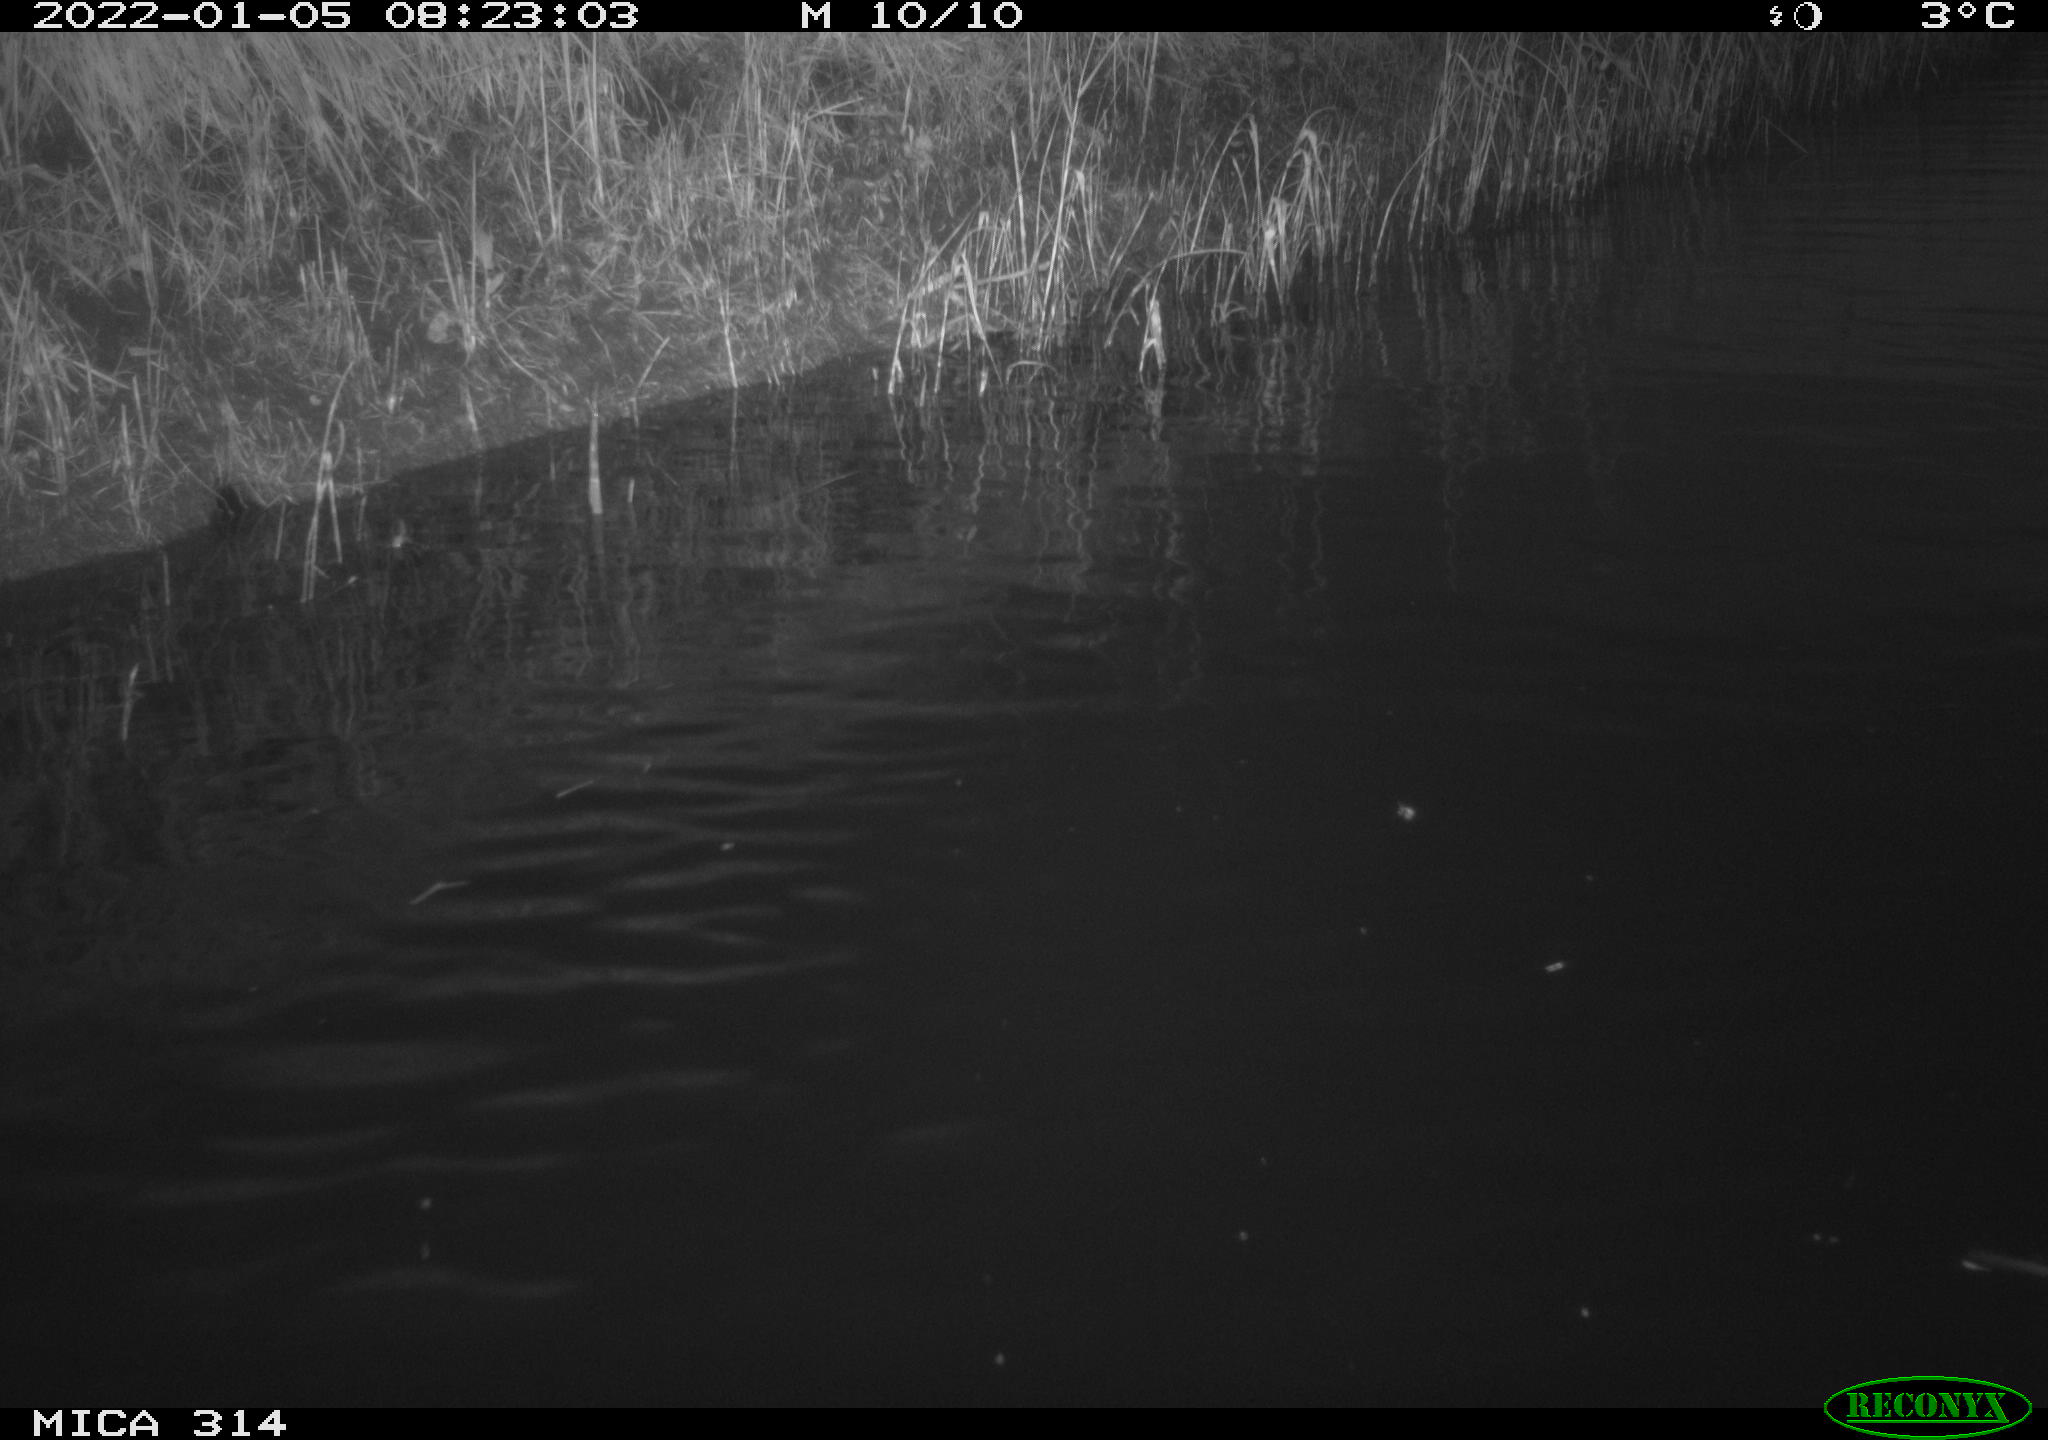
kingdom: Animalia
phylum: Chordata
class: Aves
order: Gruiformes
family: Rallidae
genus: Gallinula
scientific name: Gallinula chloropus
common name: Common moorhen
